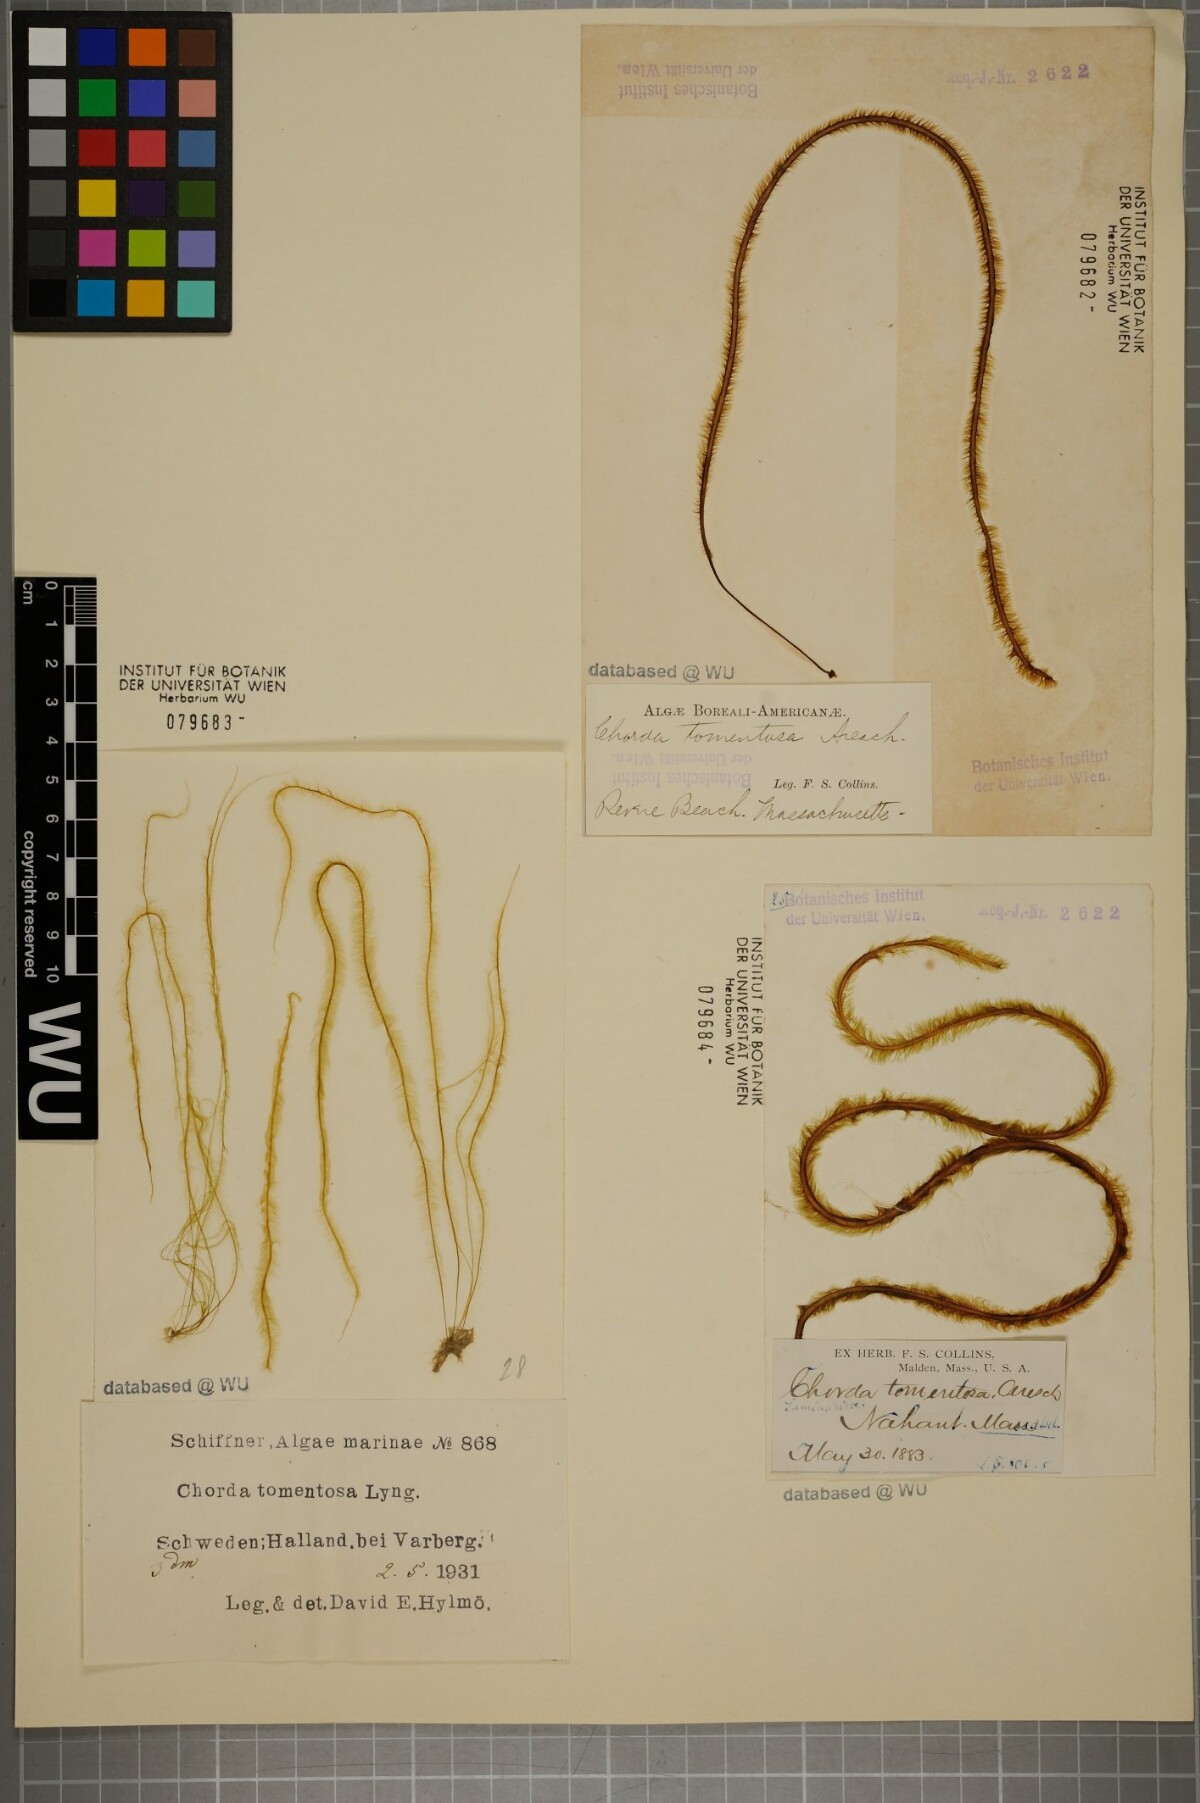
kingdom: Chromista
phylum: Ochrophyta
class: Phaeophyceae
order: Tilopteridales
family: Halosiphonaceae
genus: Halosiphon
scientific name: Halosiphon tomentosus
